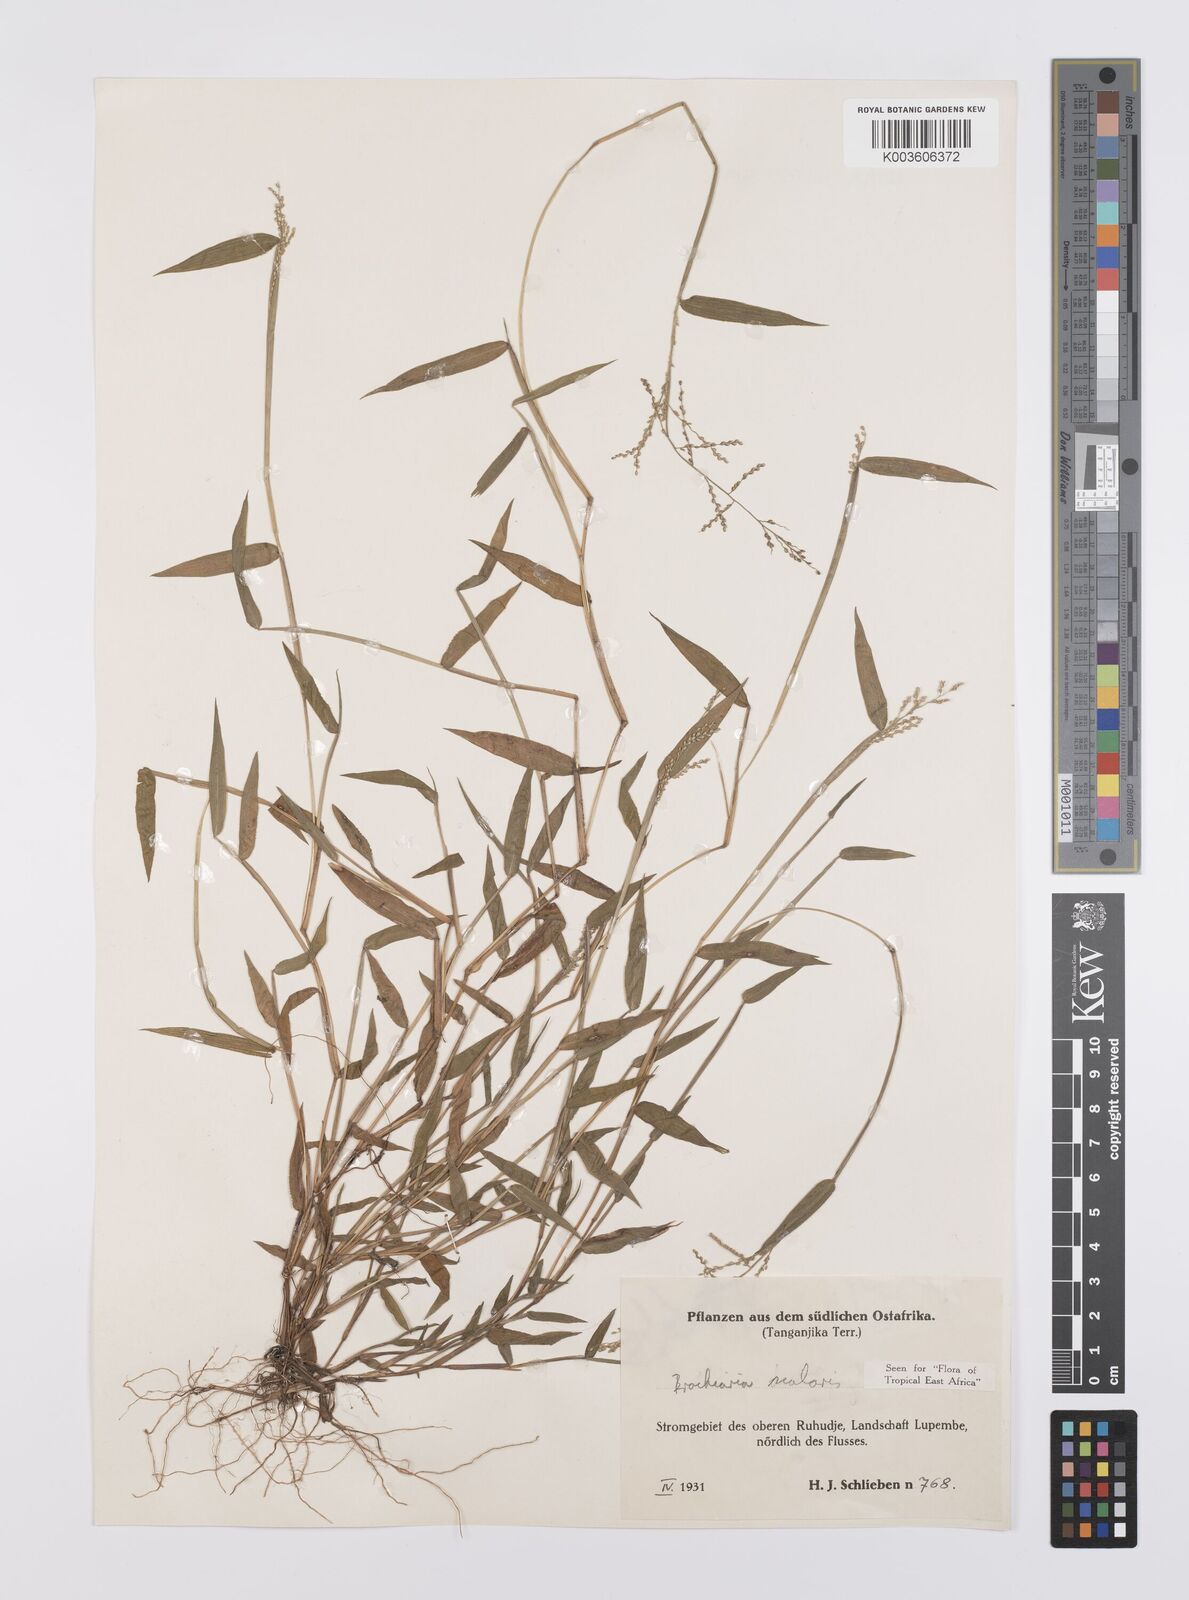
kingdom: Plantae
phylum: Tracheophyta
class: Liliopsida
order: Poales
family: Poaceae
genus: Urochloa
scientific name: Urochloa comata
